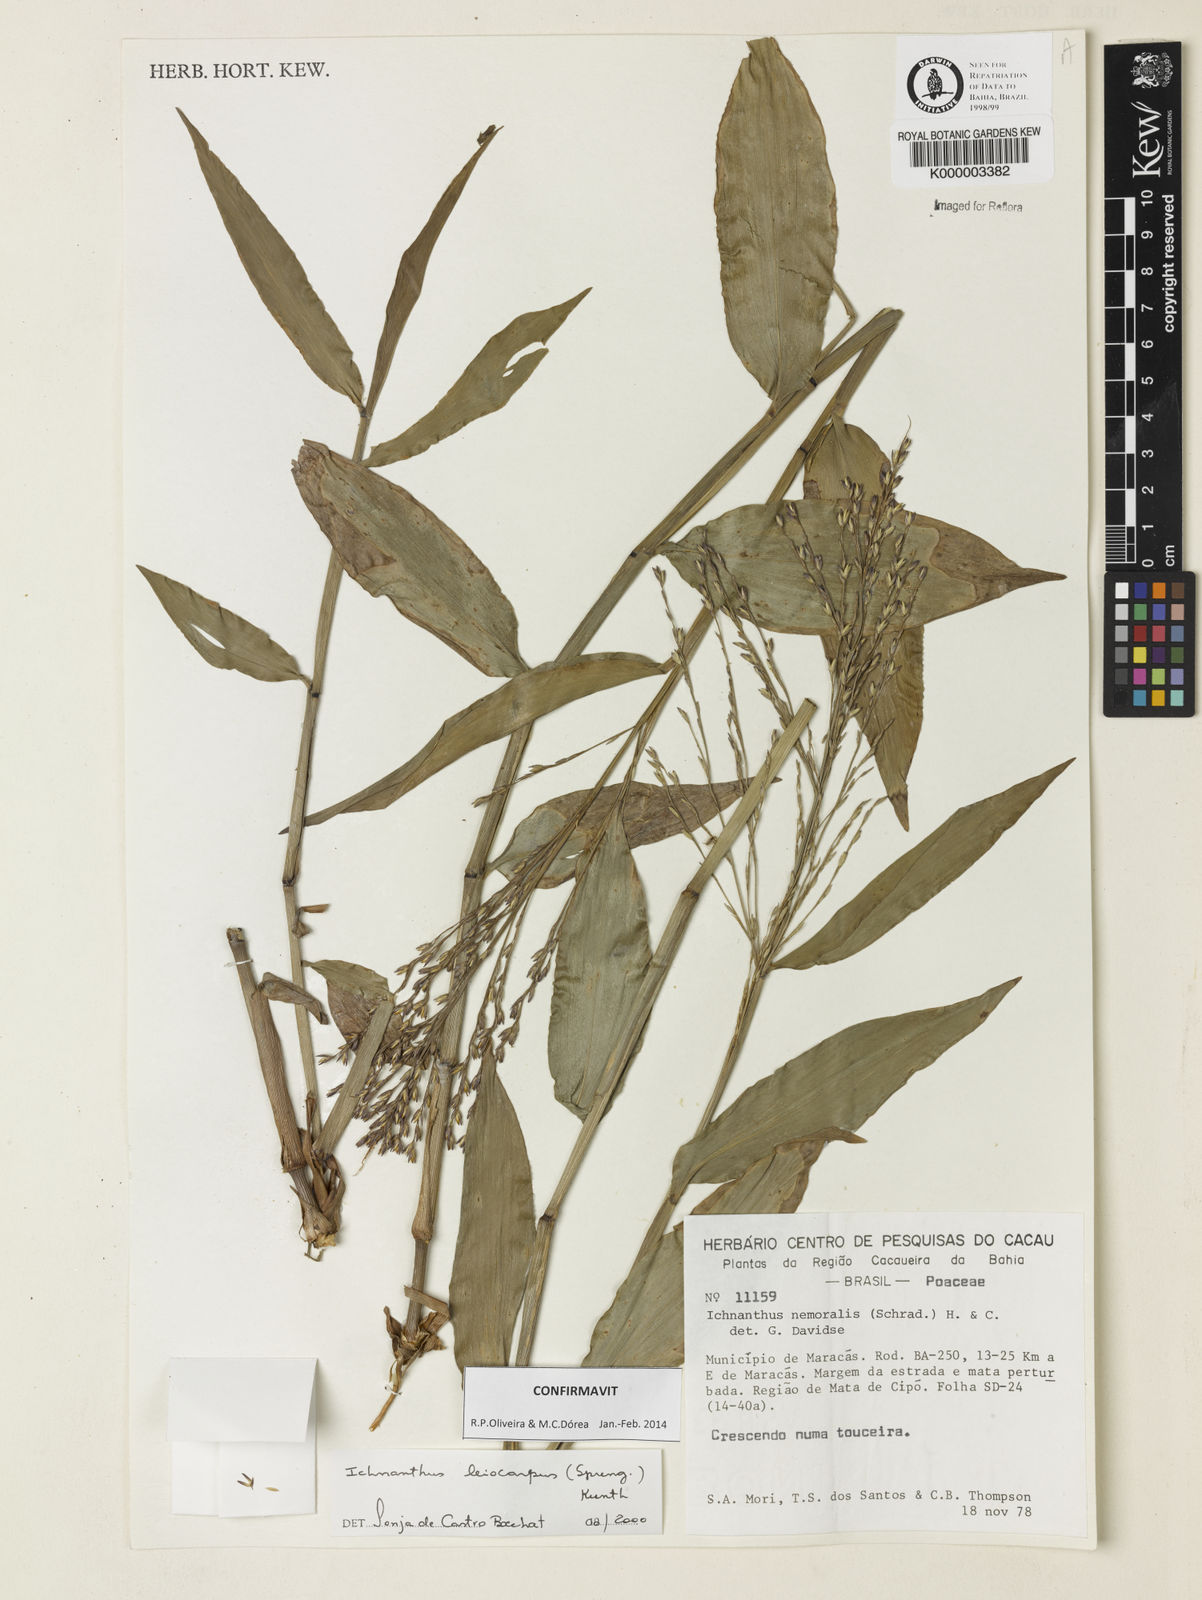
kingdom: Plantae
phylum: Tracheophyta
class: Liliopsida
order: Poales
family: Poaceae
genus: Ichnanthus
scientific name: Ichnanthus leiocarpus
